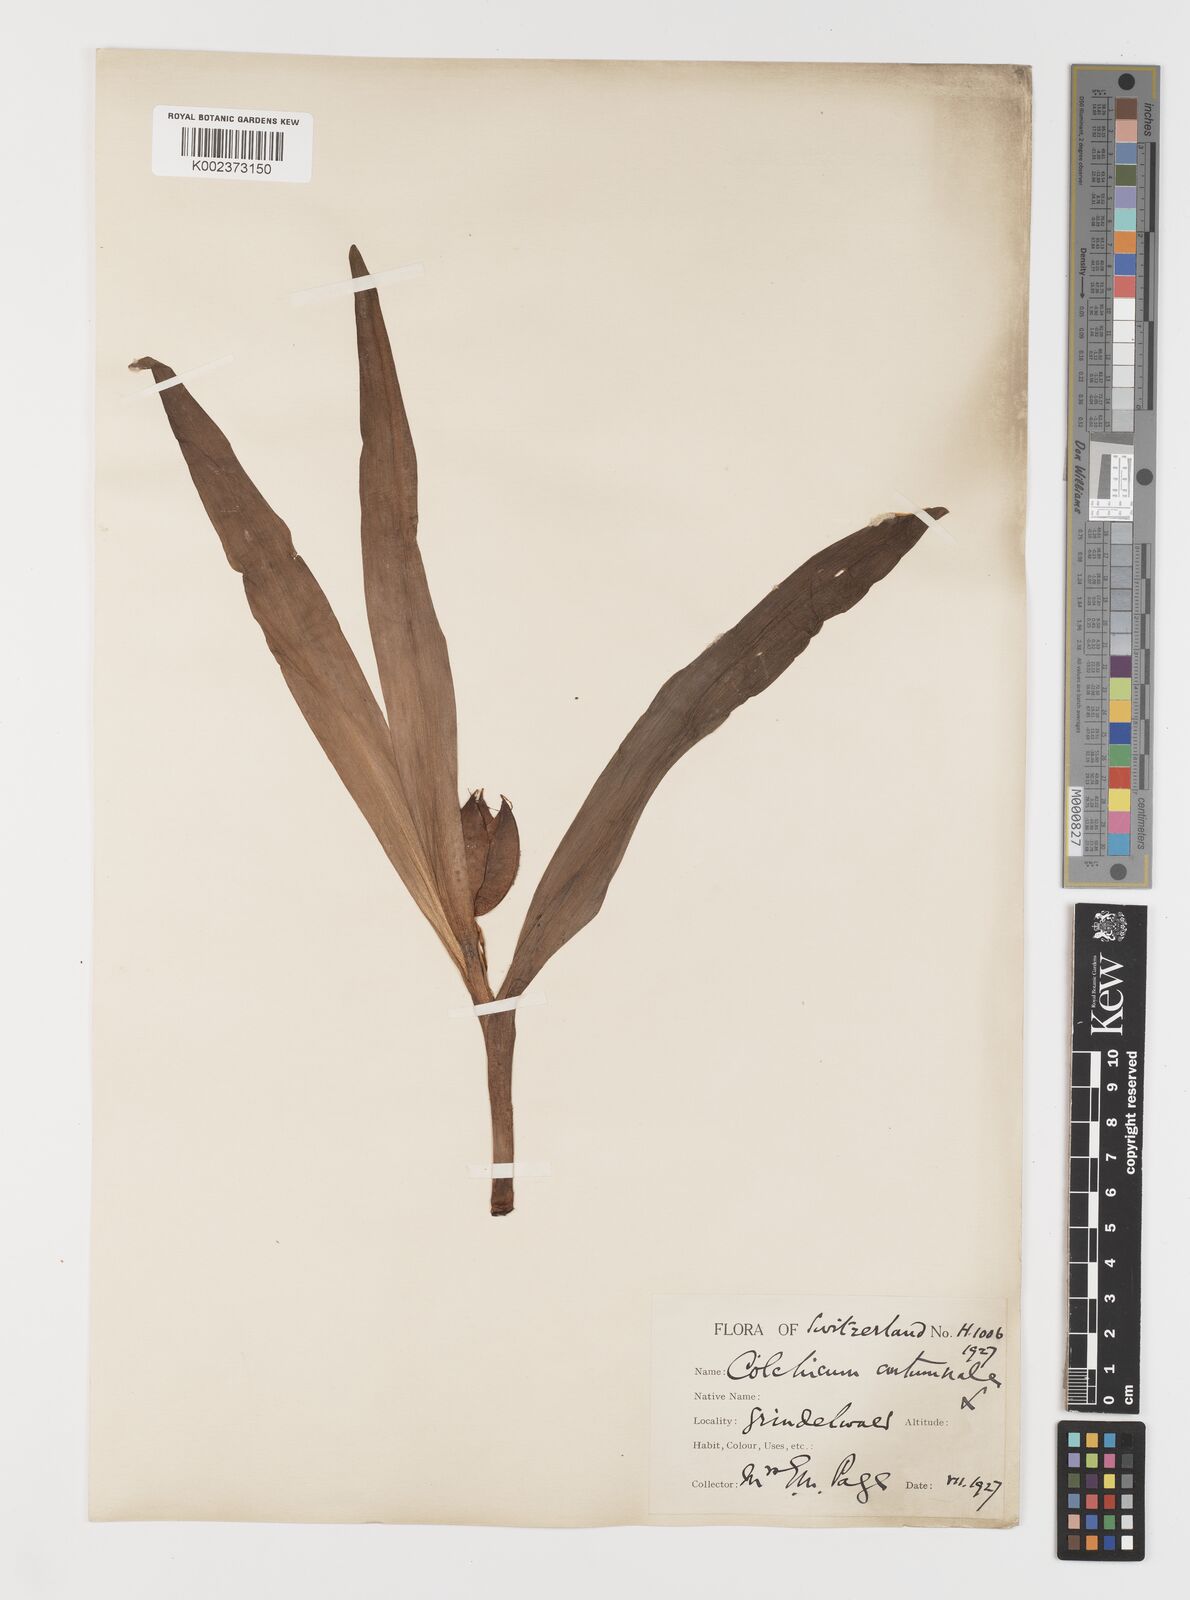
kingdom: Plantae
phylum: Tracheophyta
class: Liliopsida
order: Liliales
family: Colchicaceae
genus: Colchicum
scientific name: Colchicum autumnale
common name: Autumn crocus
